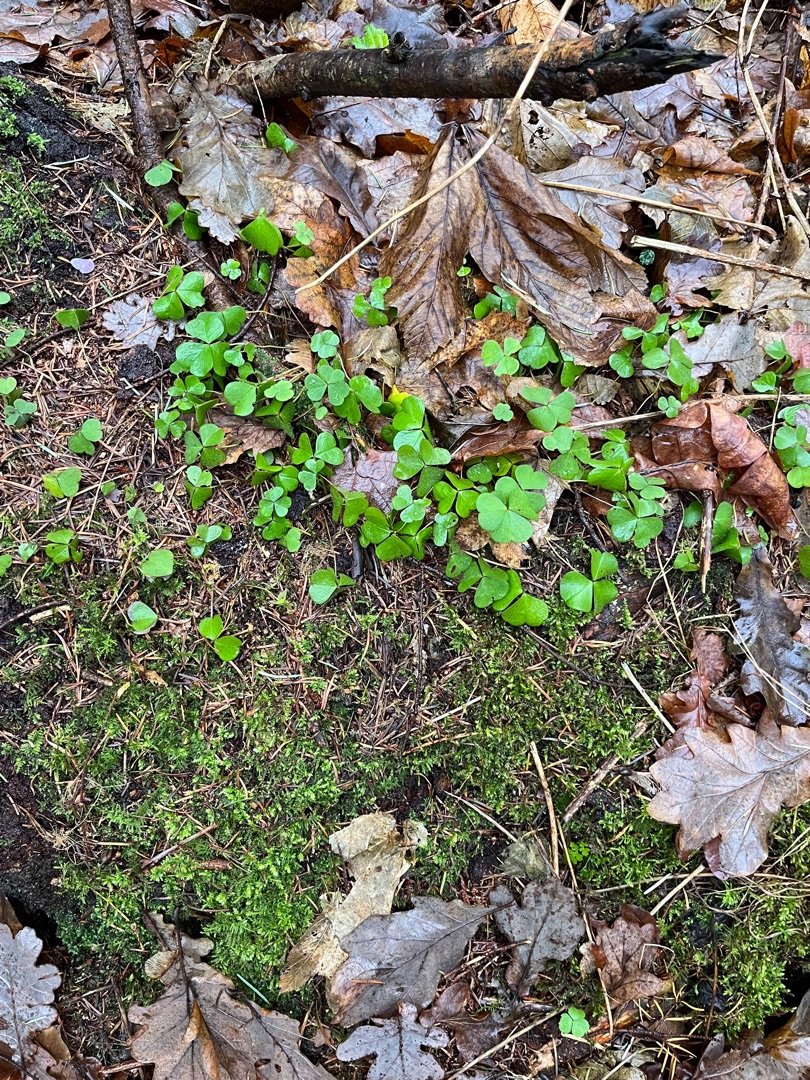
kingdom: Plantae
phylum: Tracheophyta
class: Magnoliopsida
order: Oxalidales
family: Oxalidaceae
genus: Oxalis
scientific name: Oxalis acetosella
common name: Skovsyre
